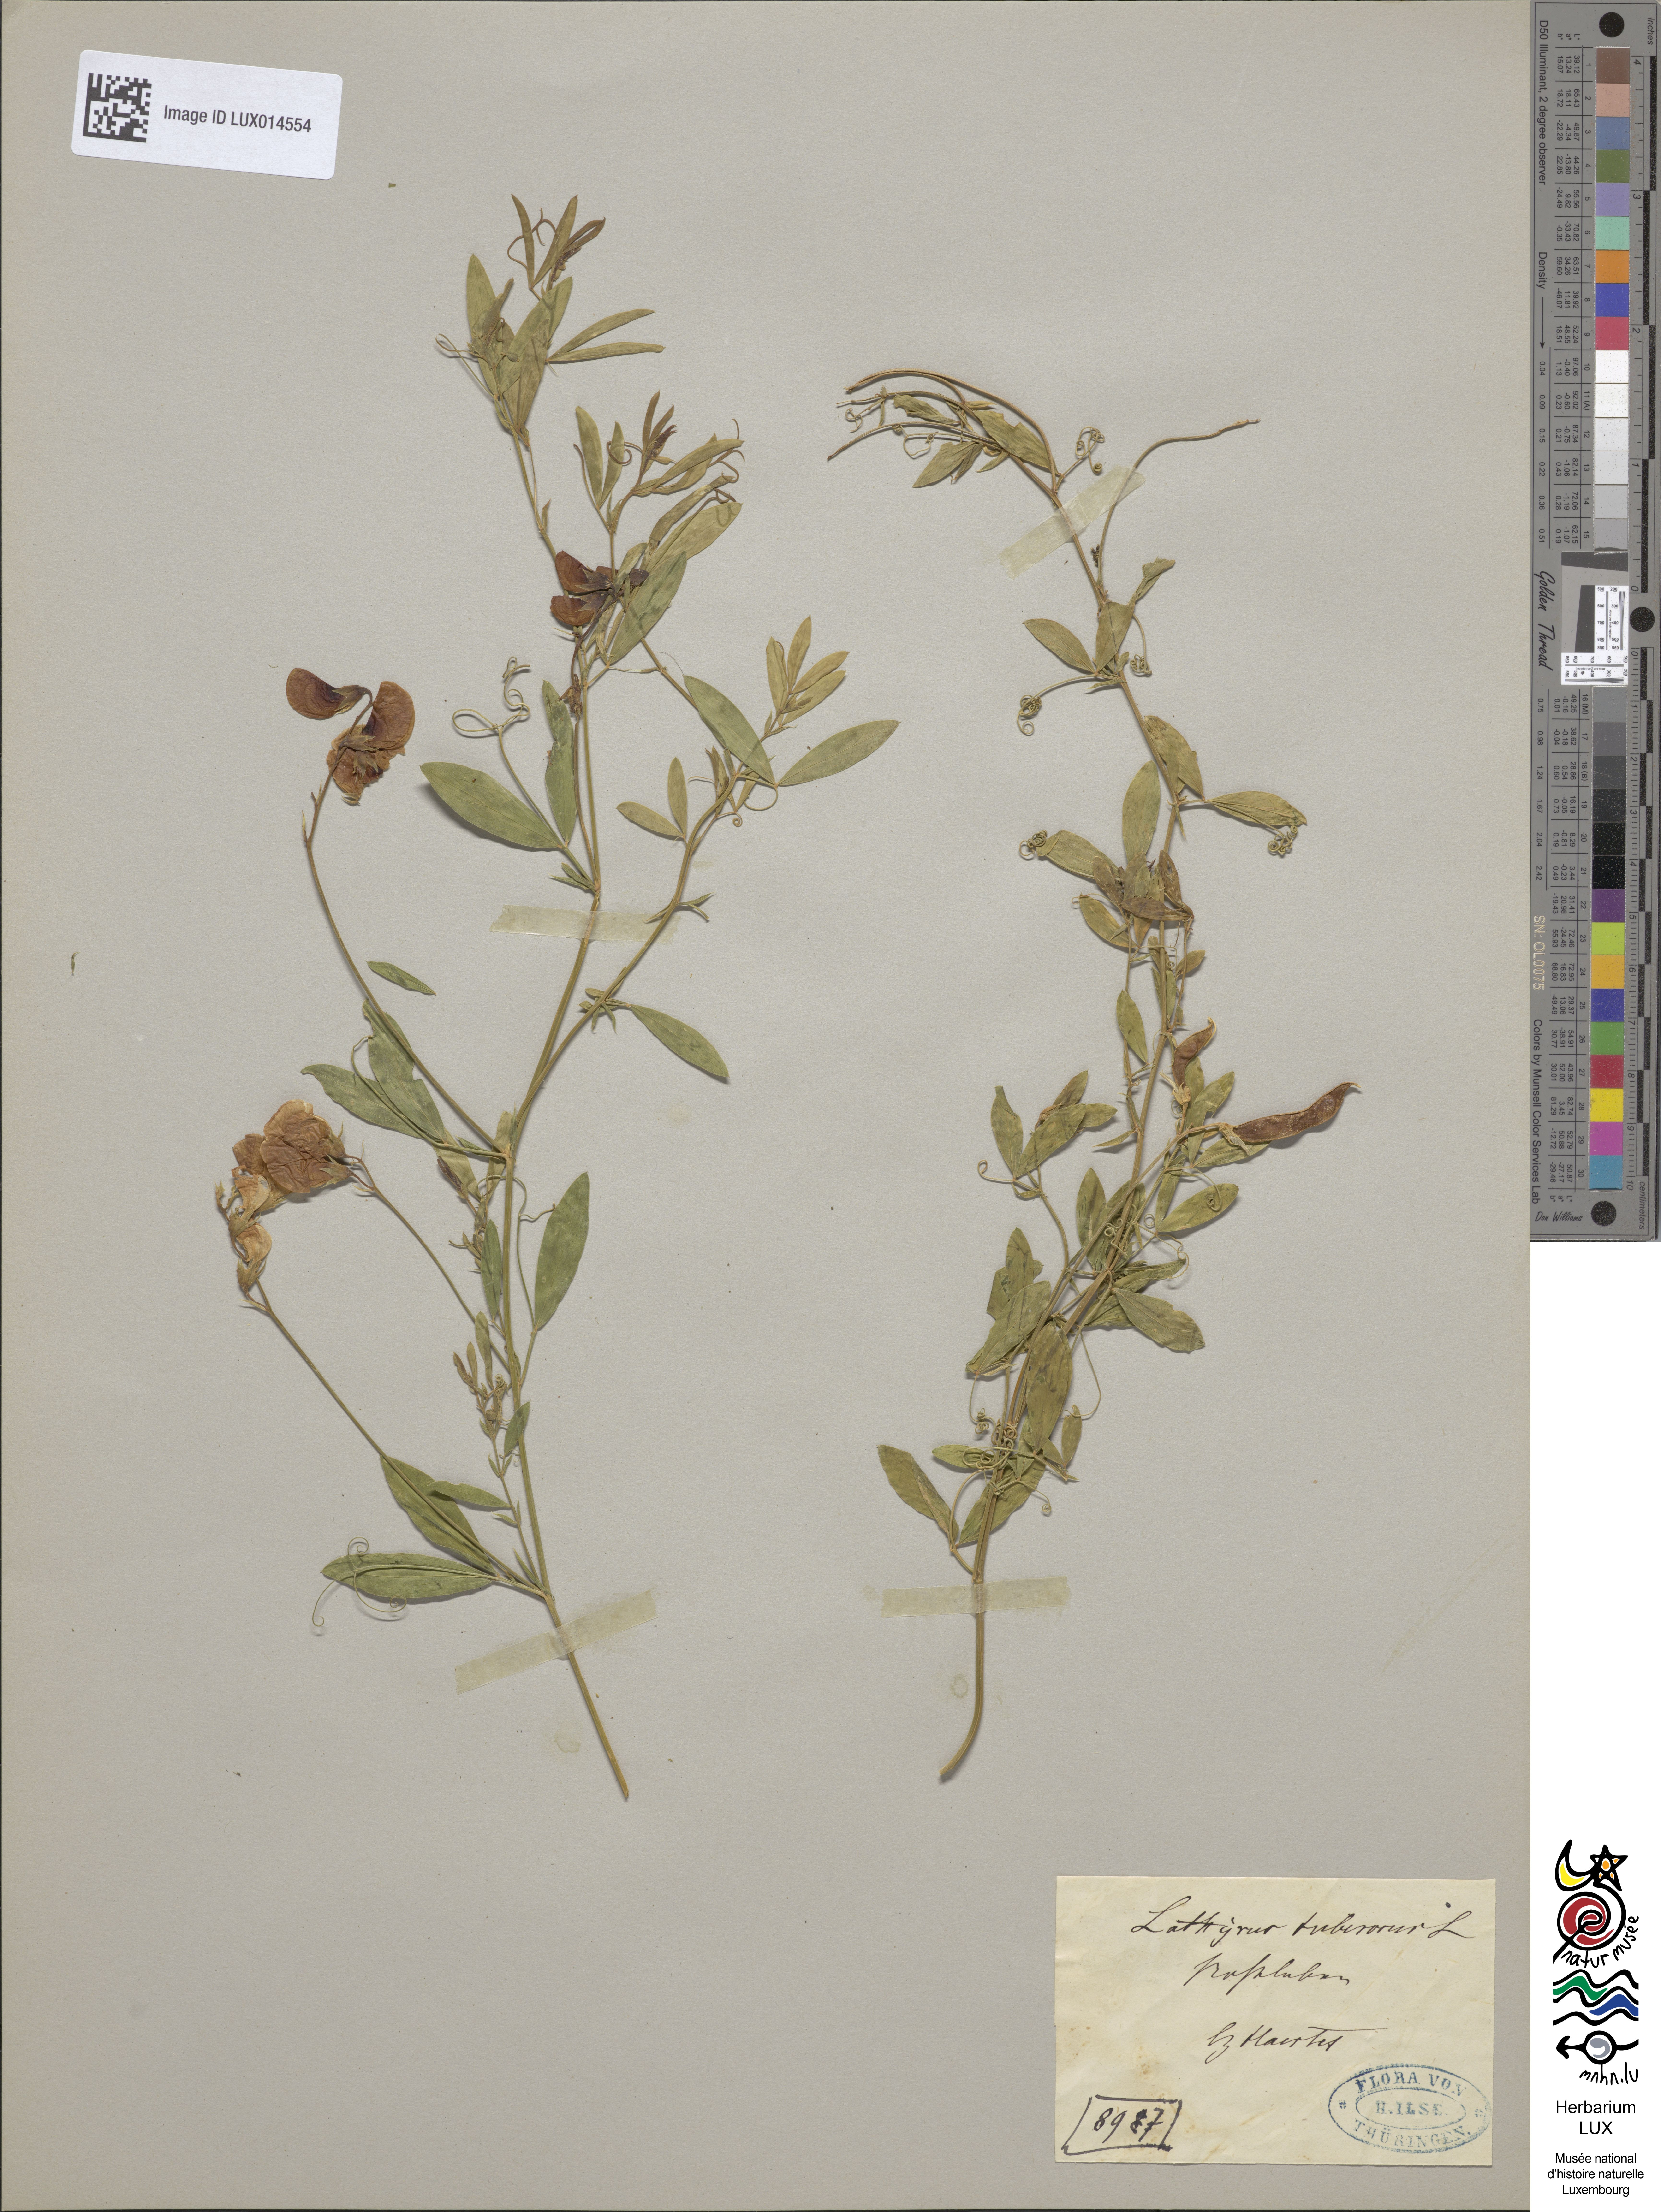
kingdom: Plantae
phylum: Tracheophyta
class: Magnoliopsida
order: Fabales
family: Fabaceae
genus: Lathyrus
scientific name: Lathyrus tuberosus
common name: Tuberous pea
